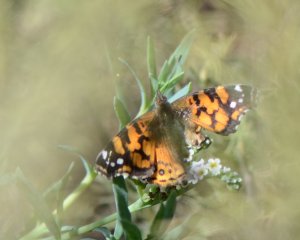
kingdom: Animalia
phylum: Arthropoda
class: Insecta
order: Lepidoptera
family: Nymphalidae
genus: Vanessa
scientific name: Vanessa annabella
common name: West Coast Lady
